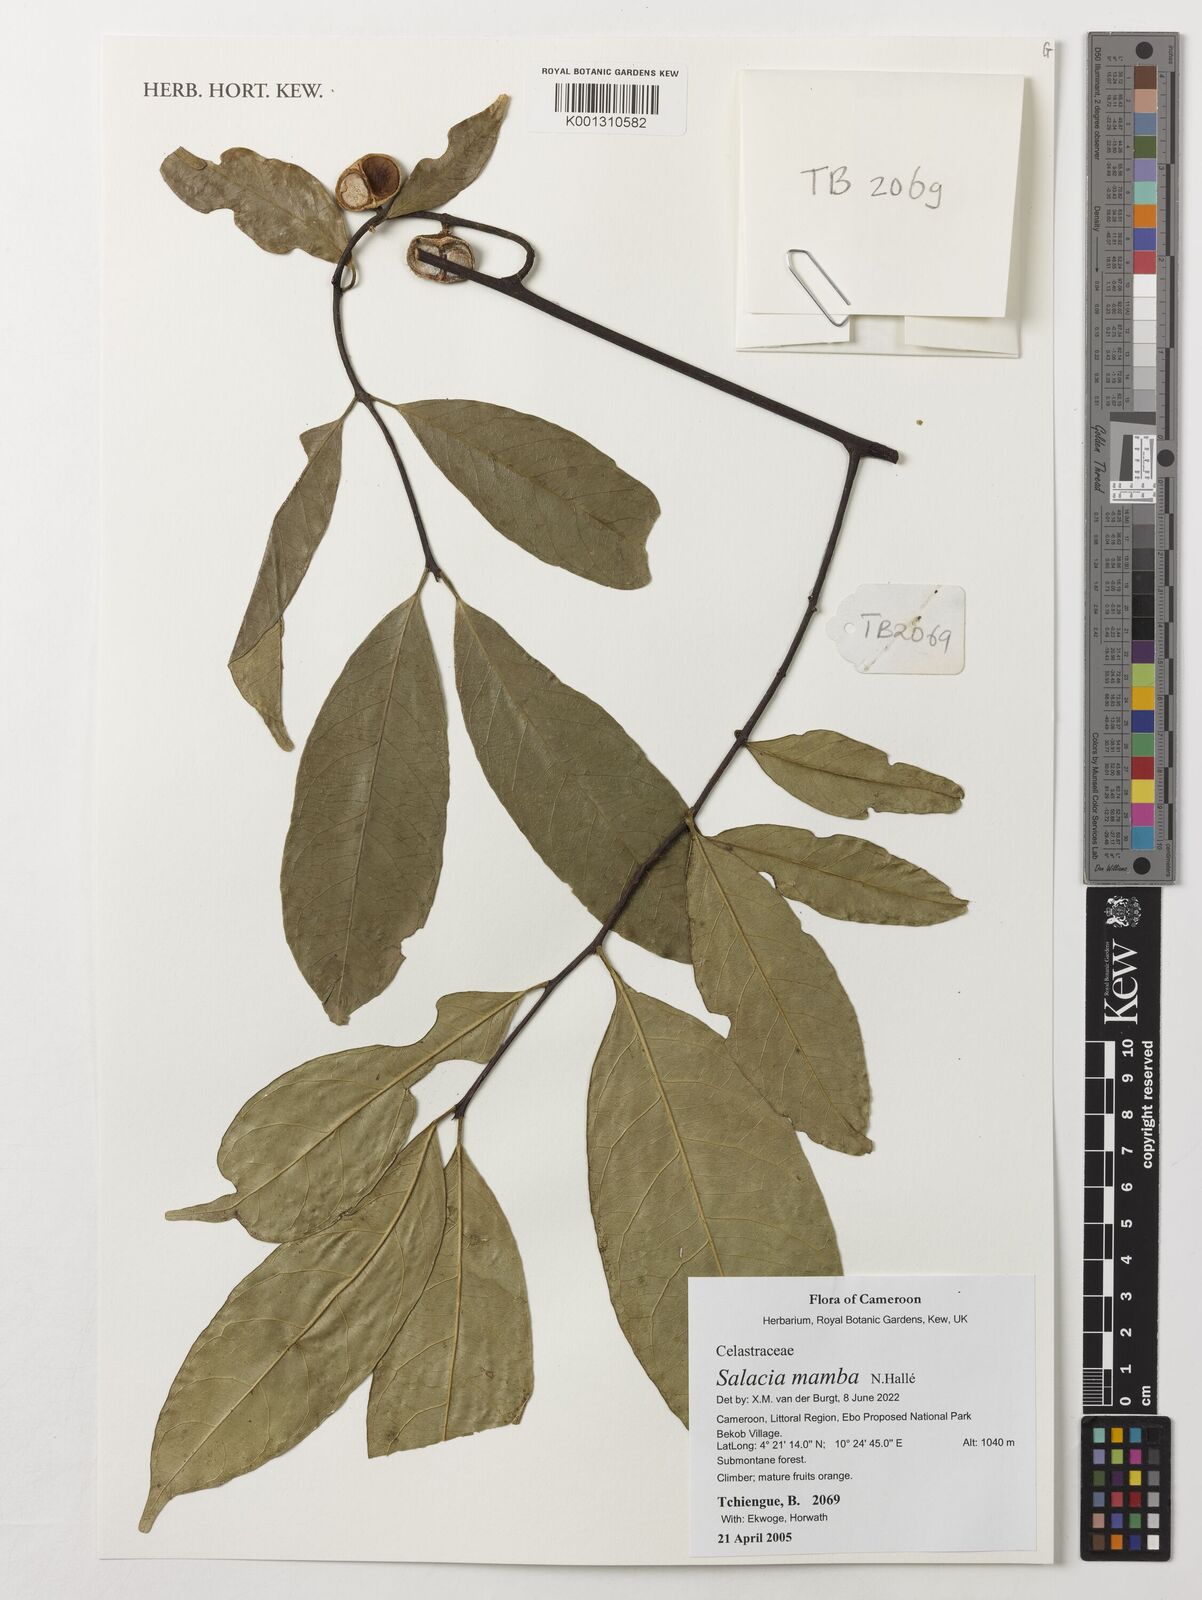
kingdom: Plantae
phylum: Tracheophyta
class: Magnoliopsida
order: Celastrales
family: Celastraceae
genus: Salacia
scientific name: Salacia mamba
